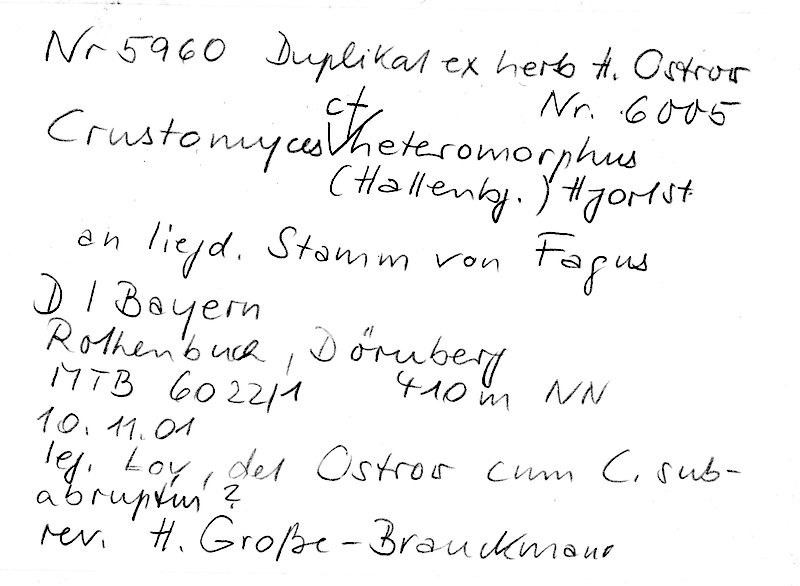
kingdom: Plantae
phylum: Tracheophyta
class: Magnoliopsida
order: Fagales
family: Fagaceae
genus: Fagus
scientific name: Fagus sylvatica
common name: Beech
